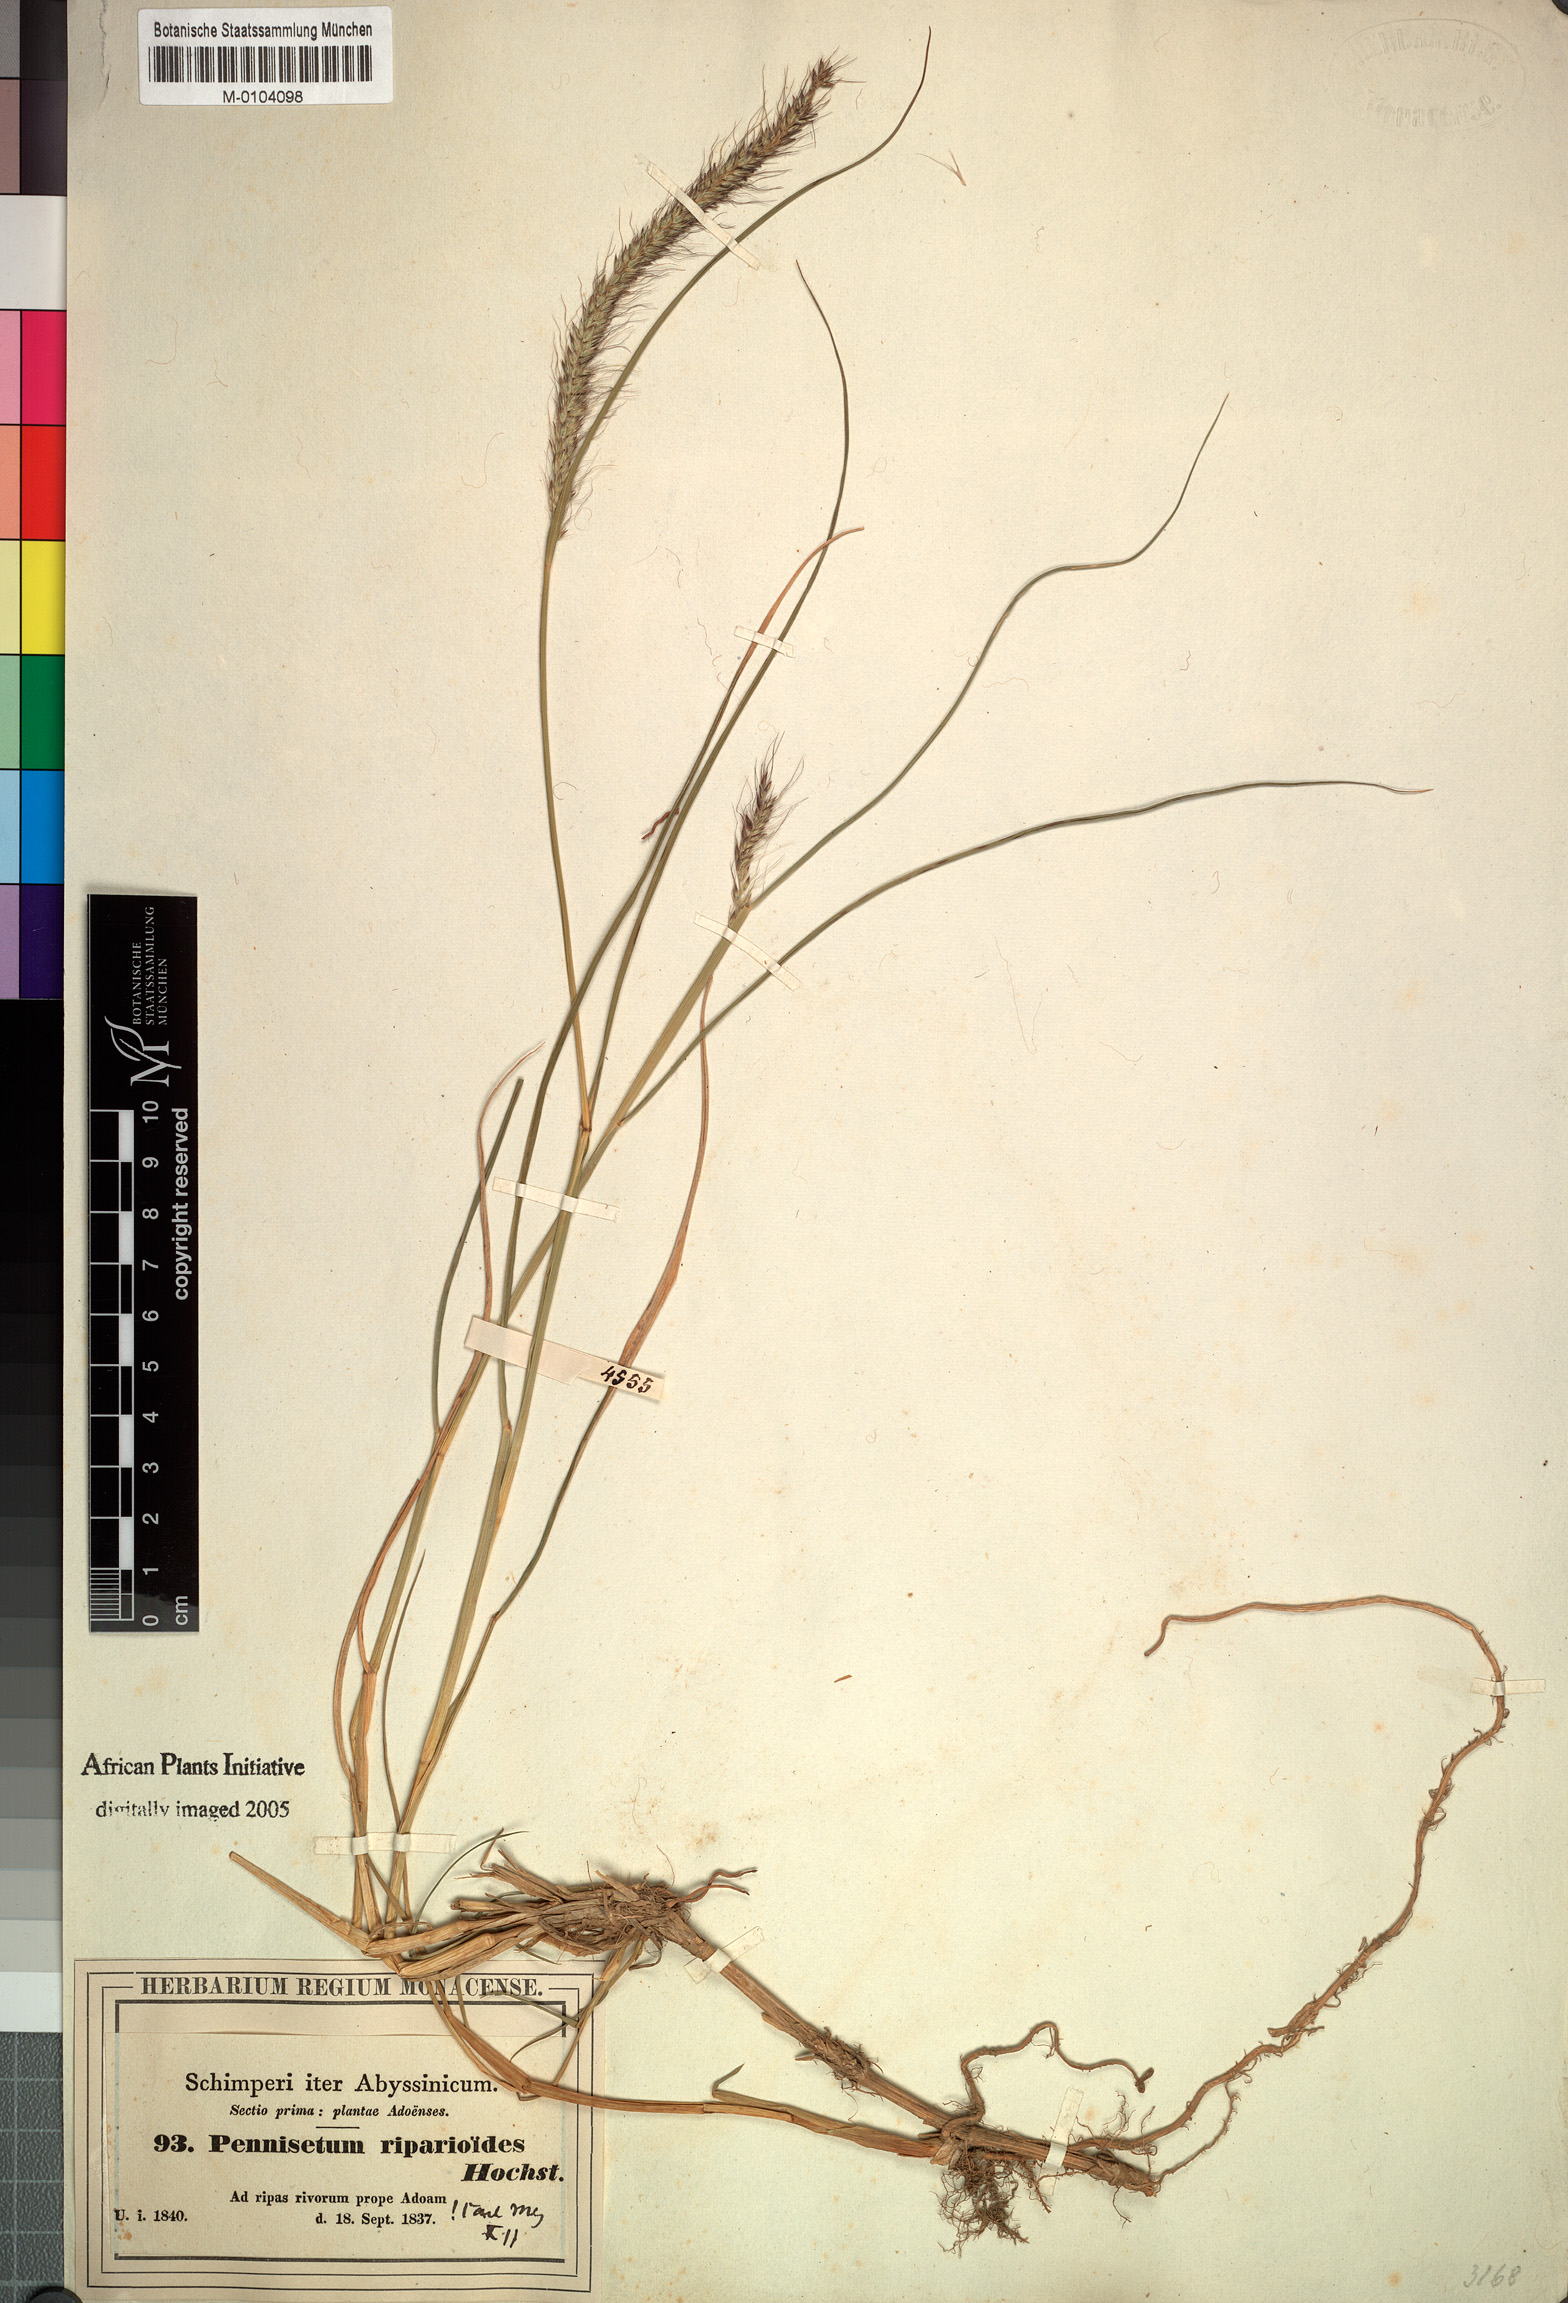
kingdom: Plantae
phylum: Tracheophyta
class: Liliopsida
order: Poales
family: Poaceae
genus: Cenchrus
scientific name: Cenchrus caudatus
